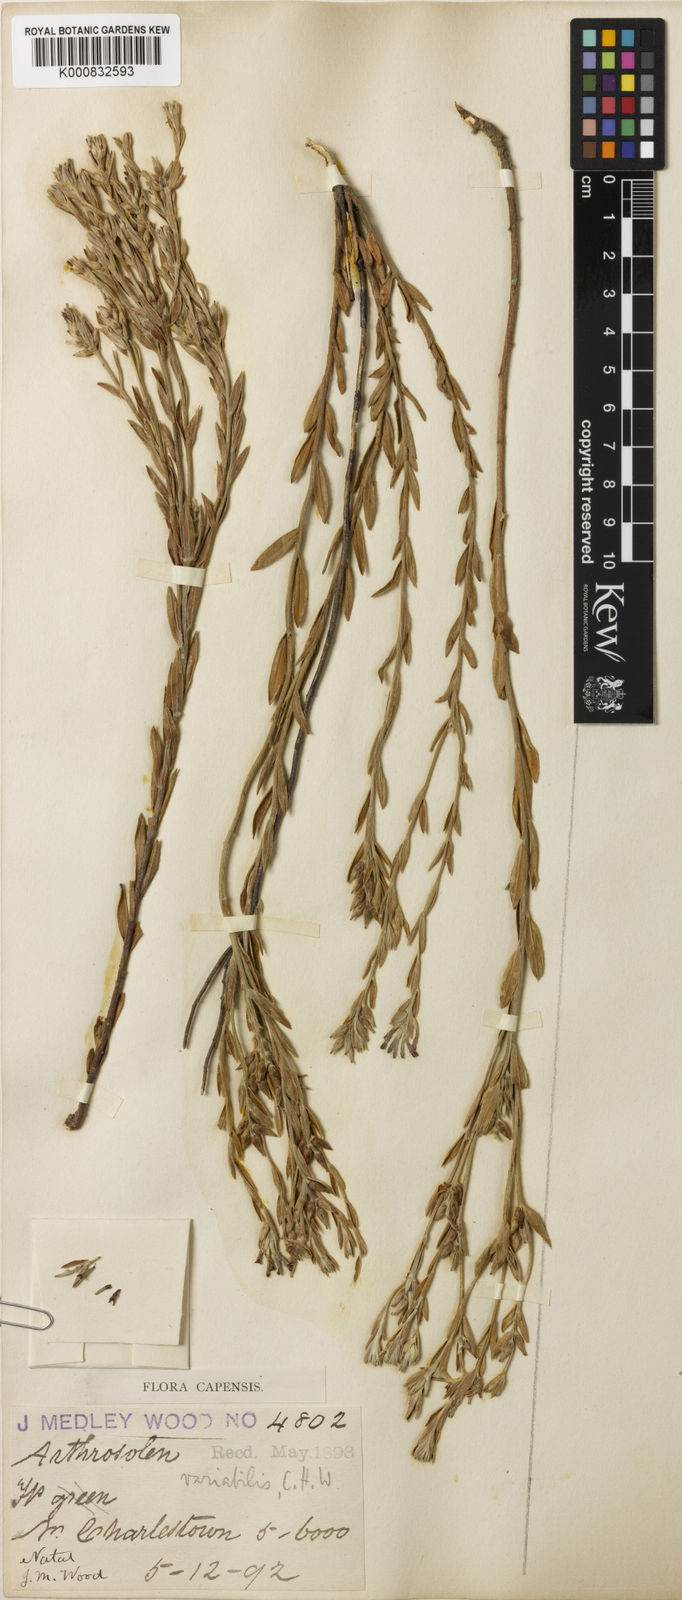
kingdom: Plantae
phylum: Tracheophyta
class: Magnoliopsida
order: Malvales
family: Thymelaeaceae
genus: Gnidia
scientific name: Gnidia variabilis
